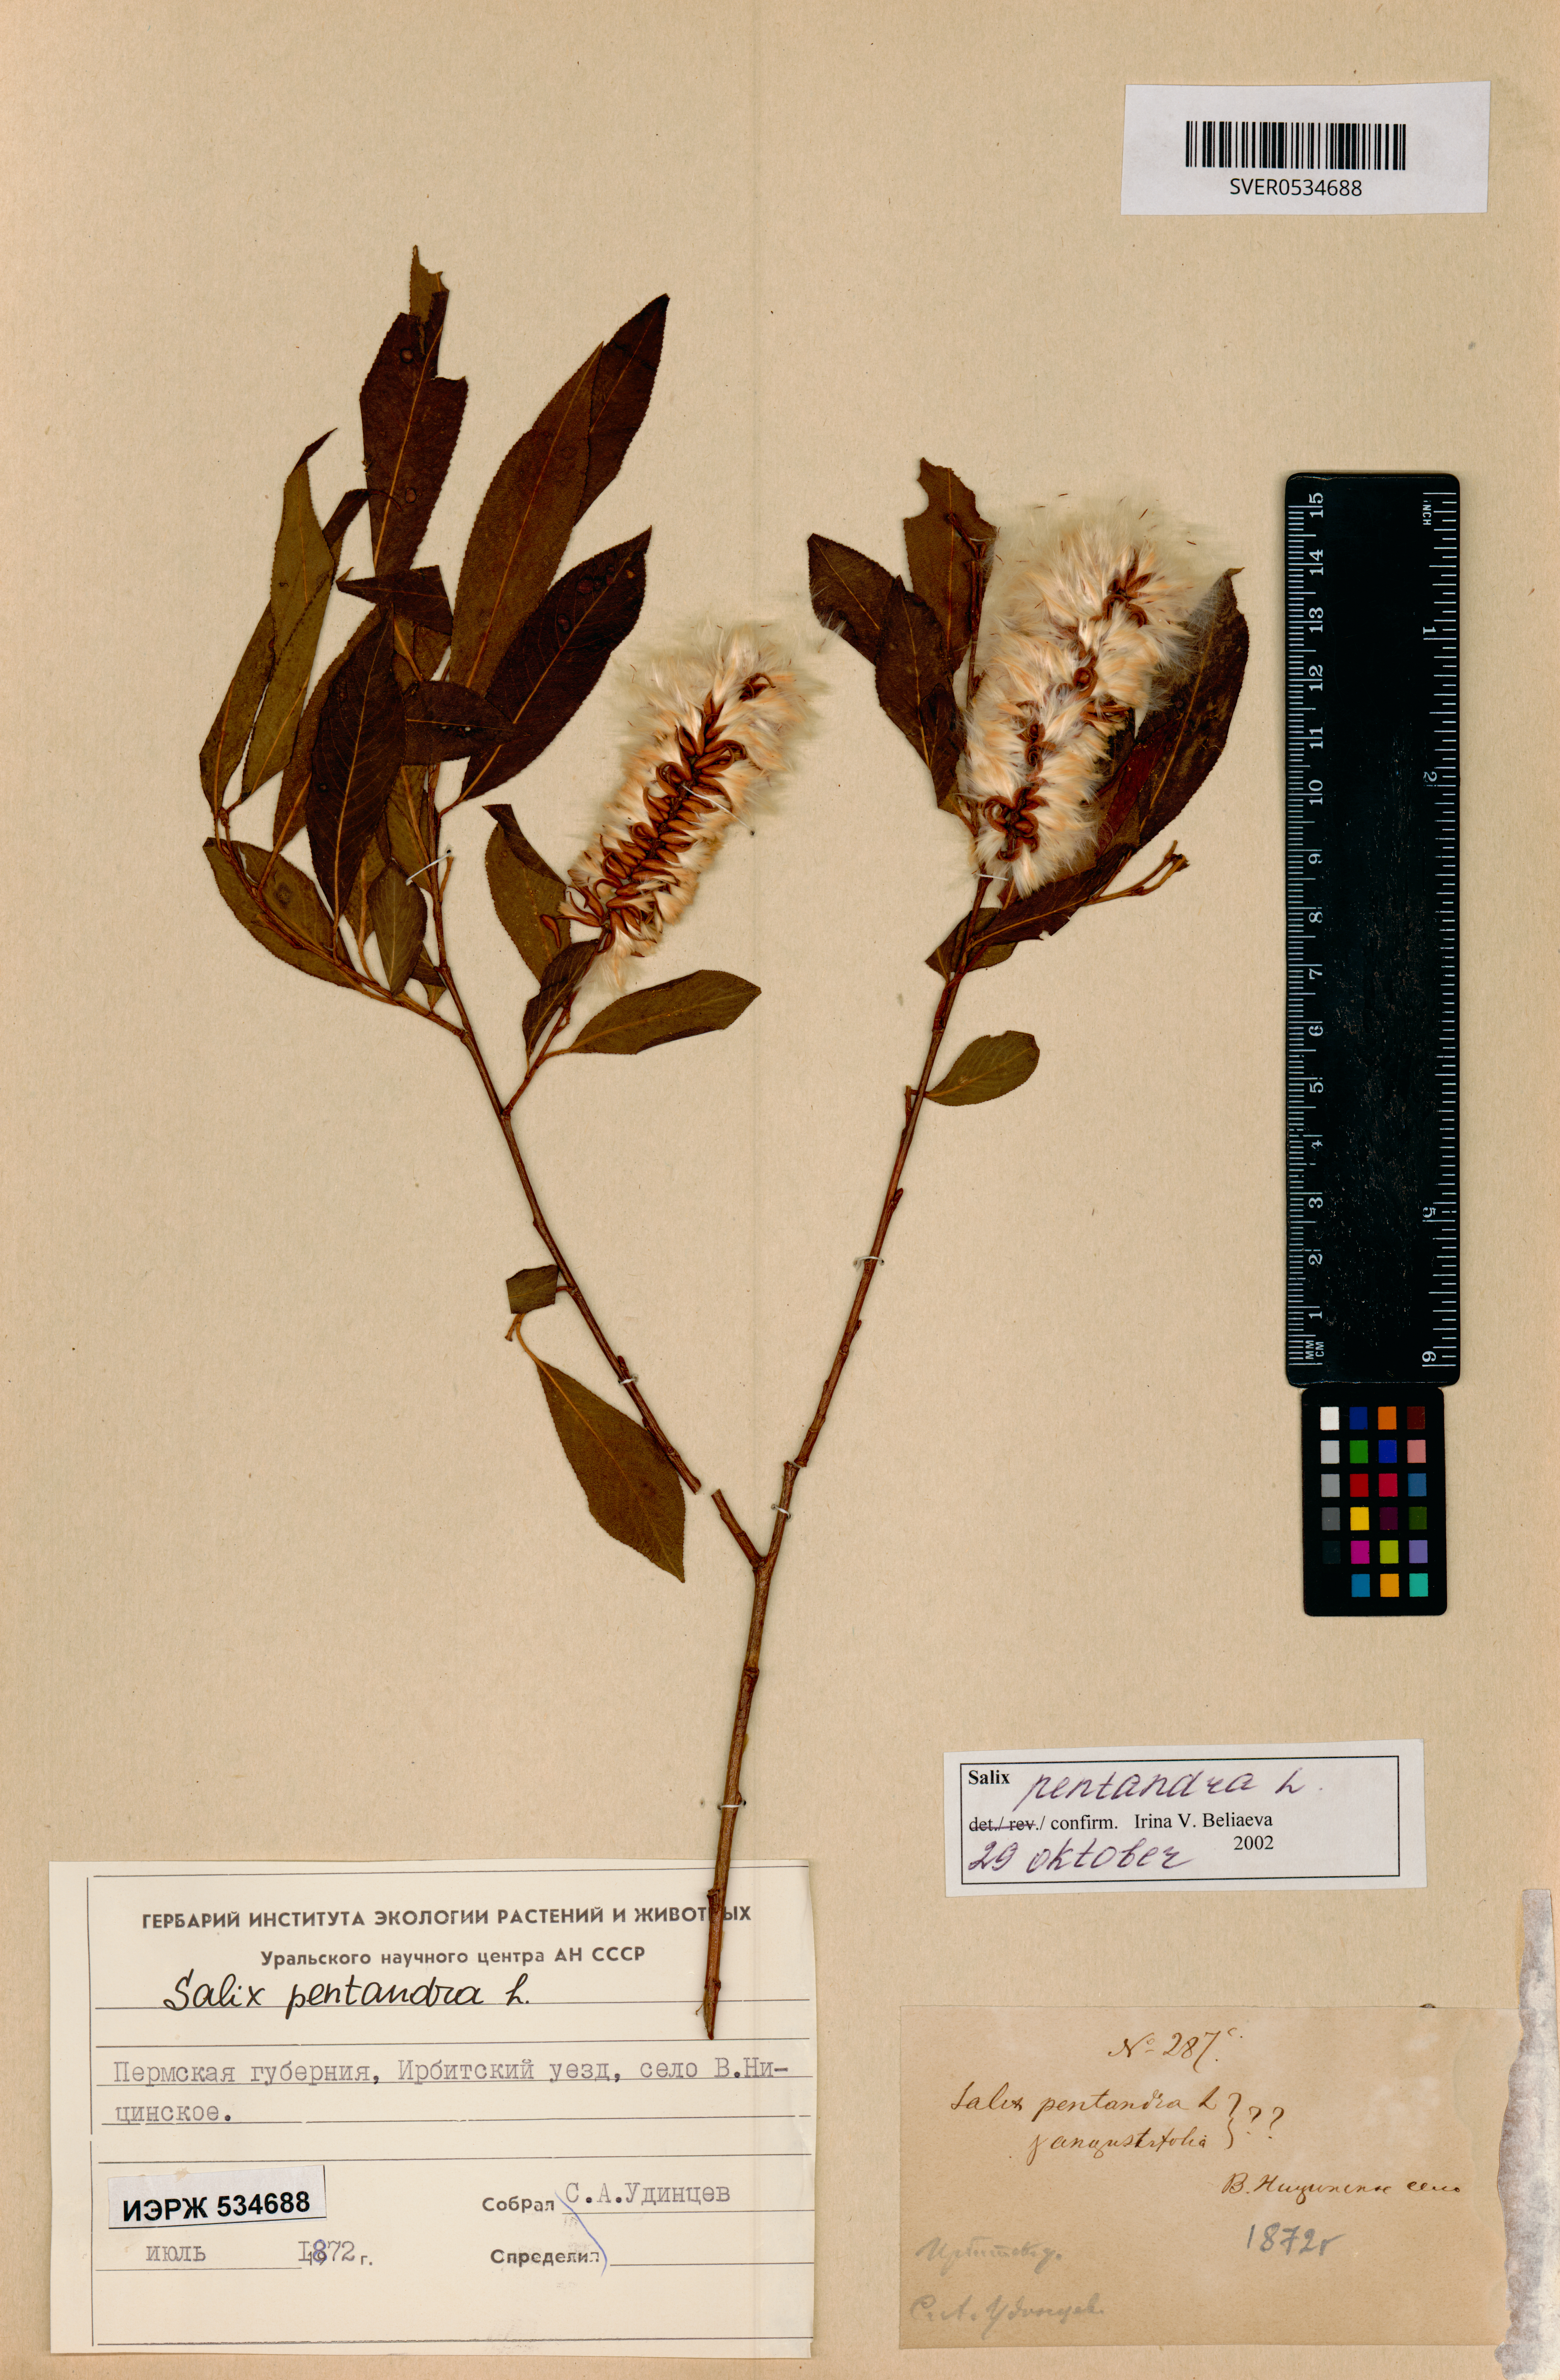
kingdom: Plantae
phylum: Tracheophyta
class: Magnoliopsida
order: Malpighiales
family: Salicaceae
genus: Salix
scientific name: Salix pentandra
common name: Bay willow
